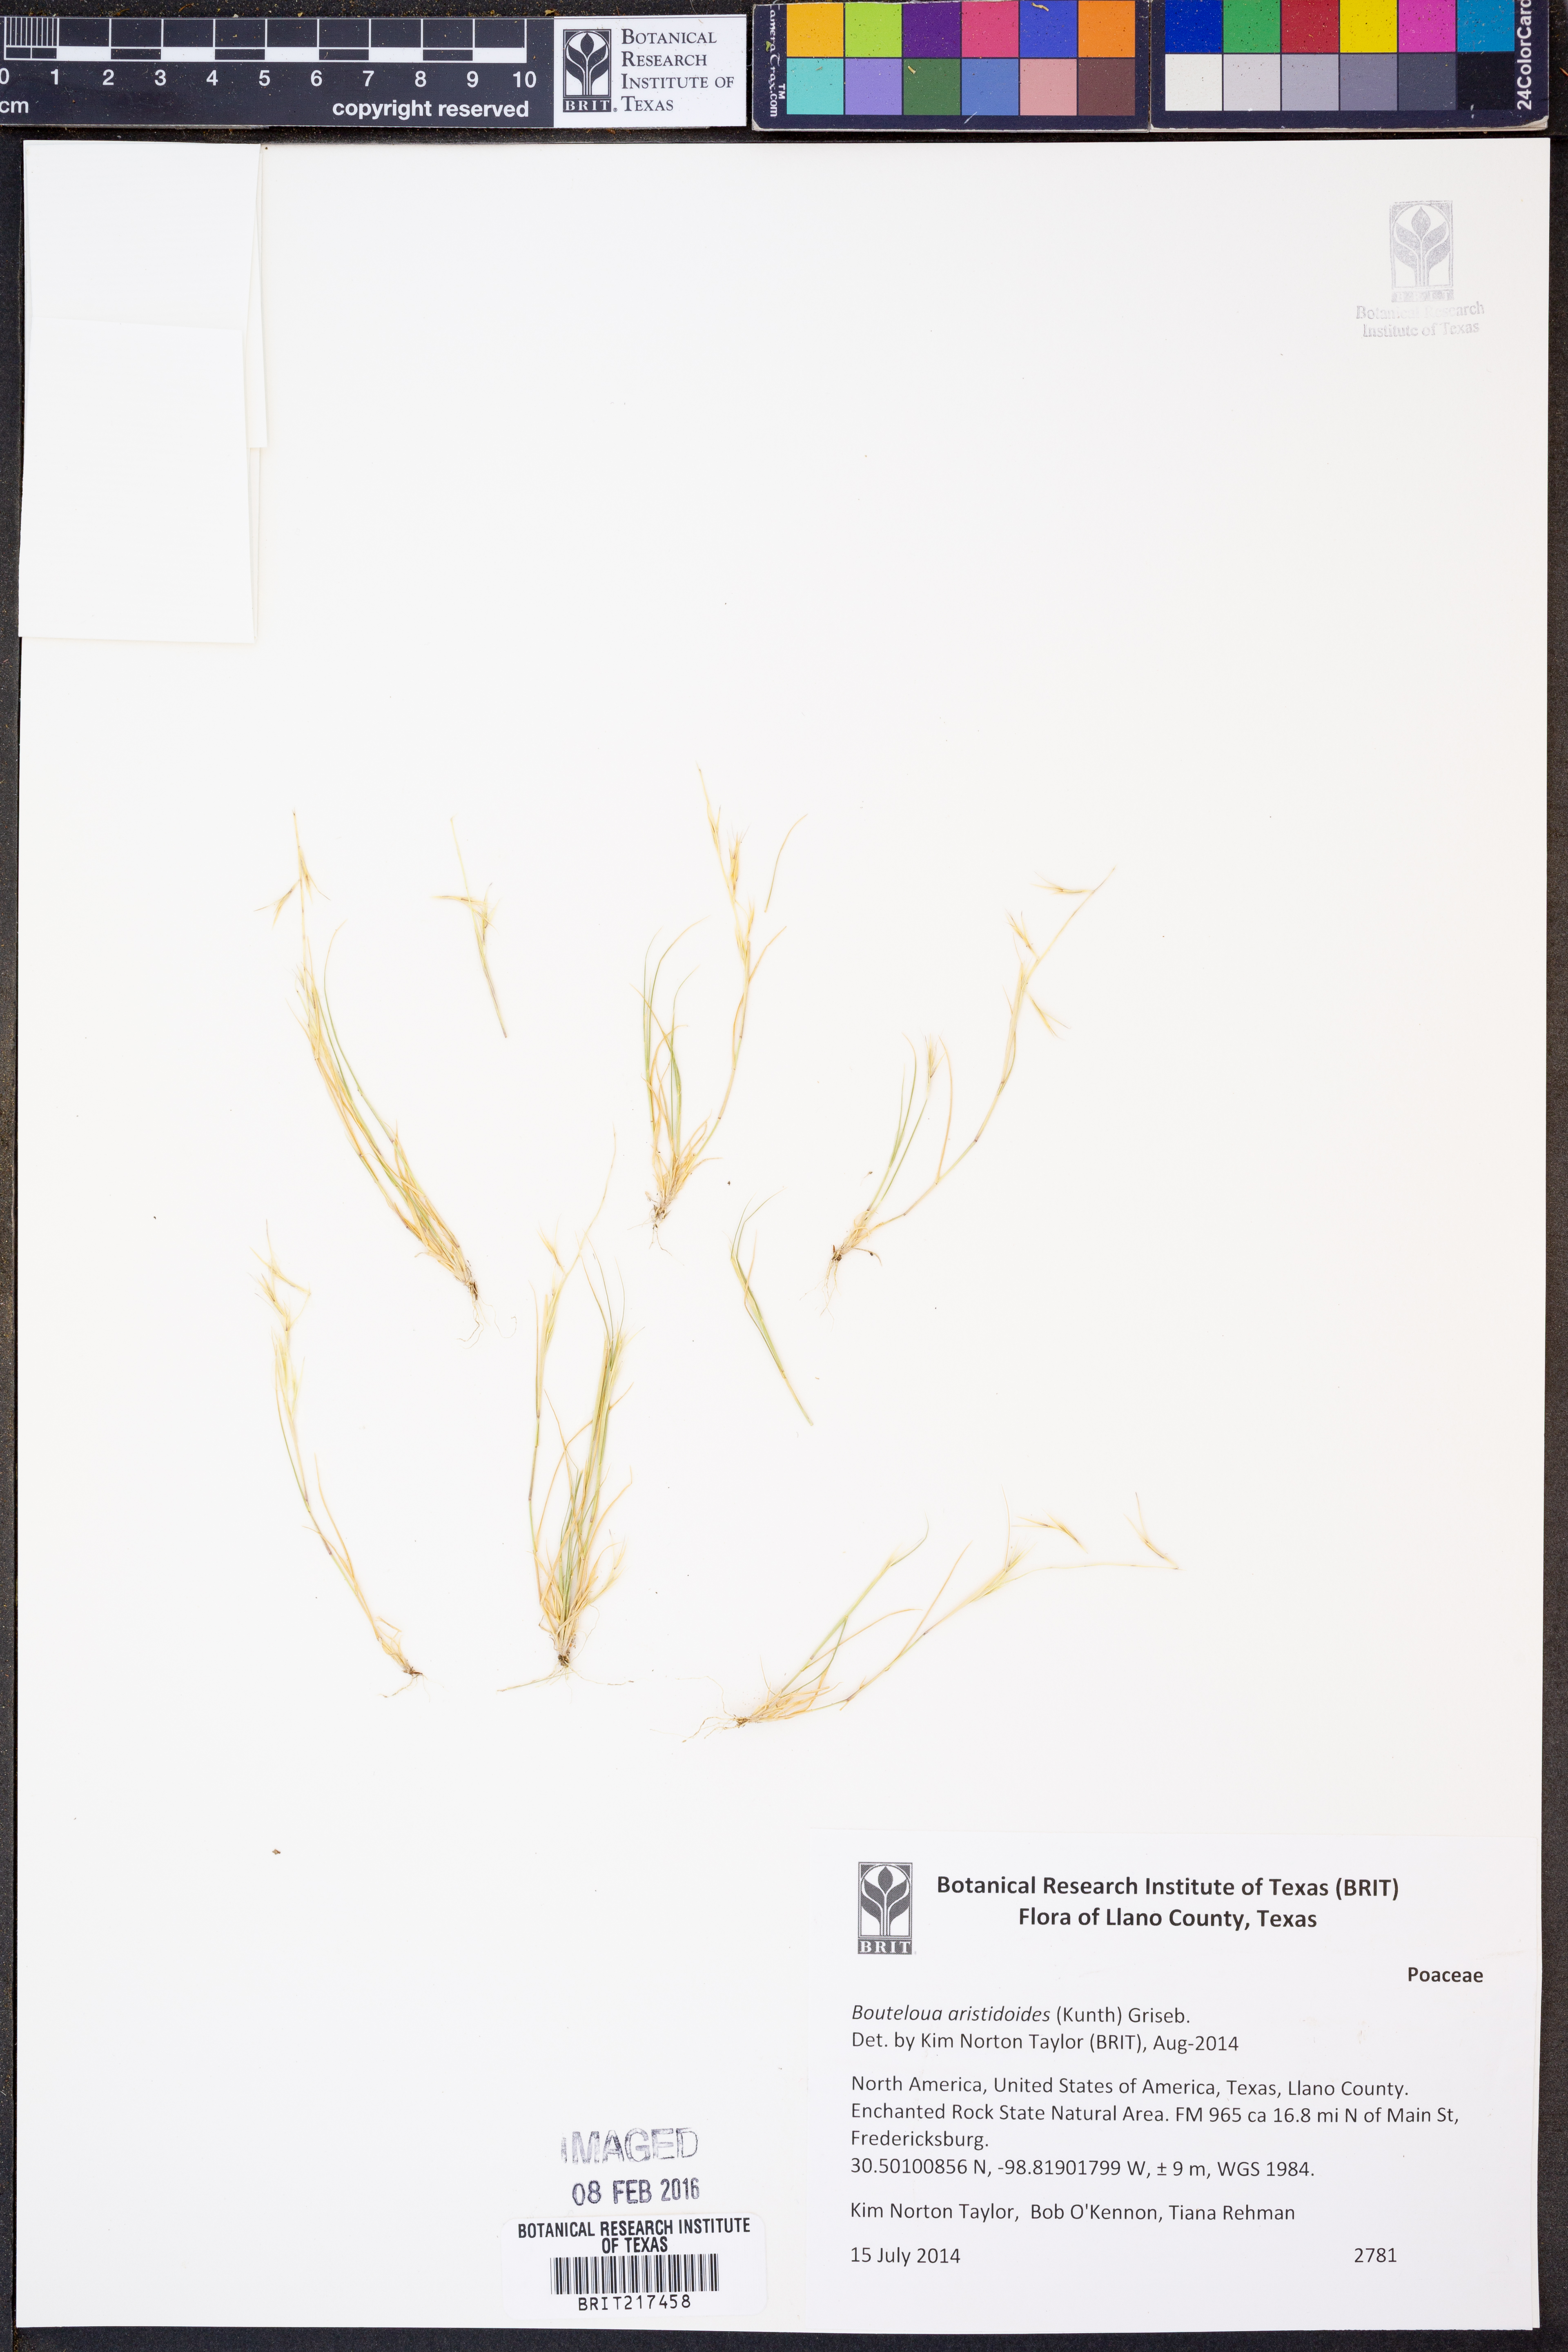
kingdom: Plantae
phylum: Tracheophyta
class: Liliopsida
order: Poales
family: Poaceae
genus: Bouteloua
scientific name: Bouteloua aristidoides
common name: Needle grama
